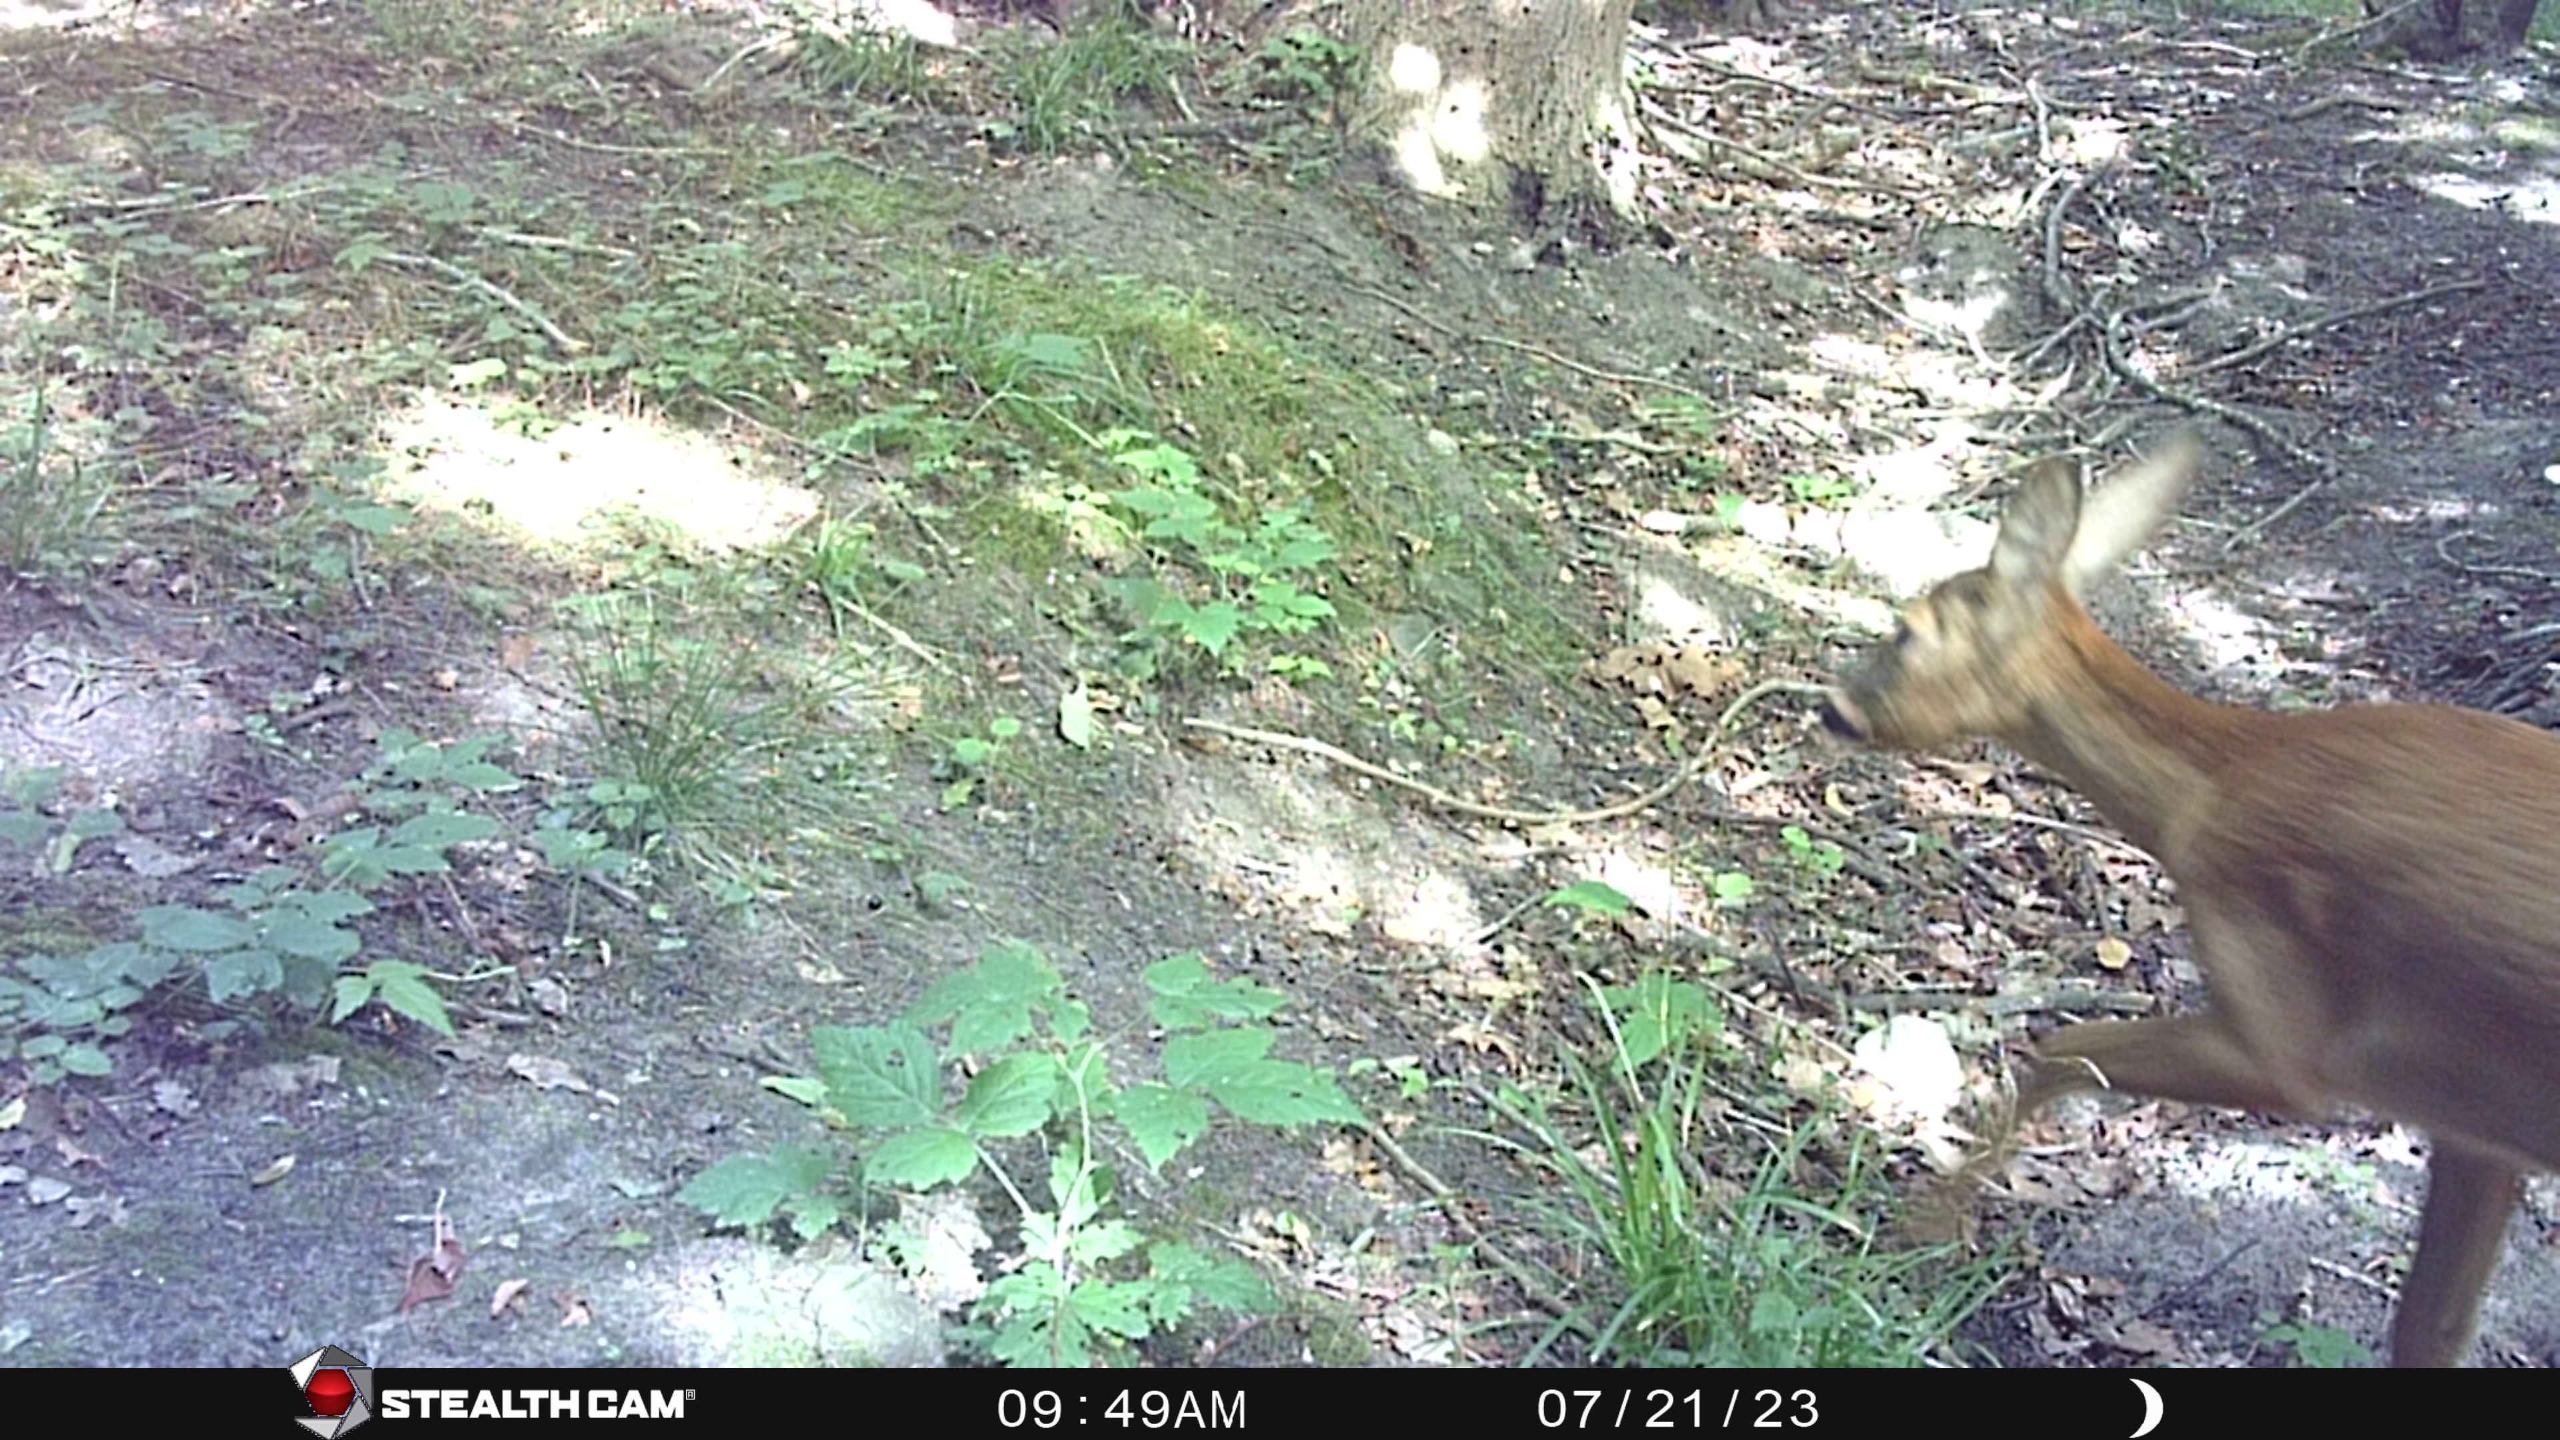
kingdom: Animalia
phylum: Chordata
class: Mammalia
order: Artiodactyla
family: Cervidae
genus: Capreolus
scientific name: Capreolus capreolus
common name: Rådyr
